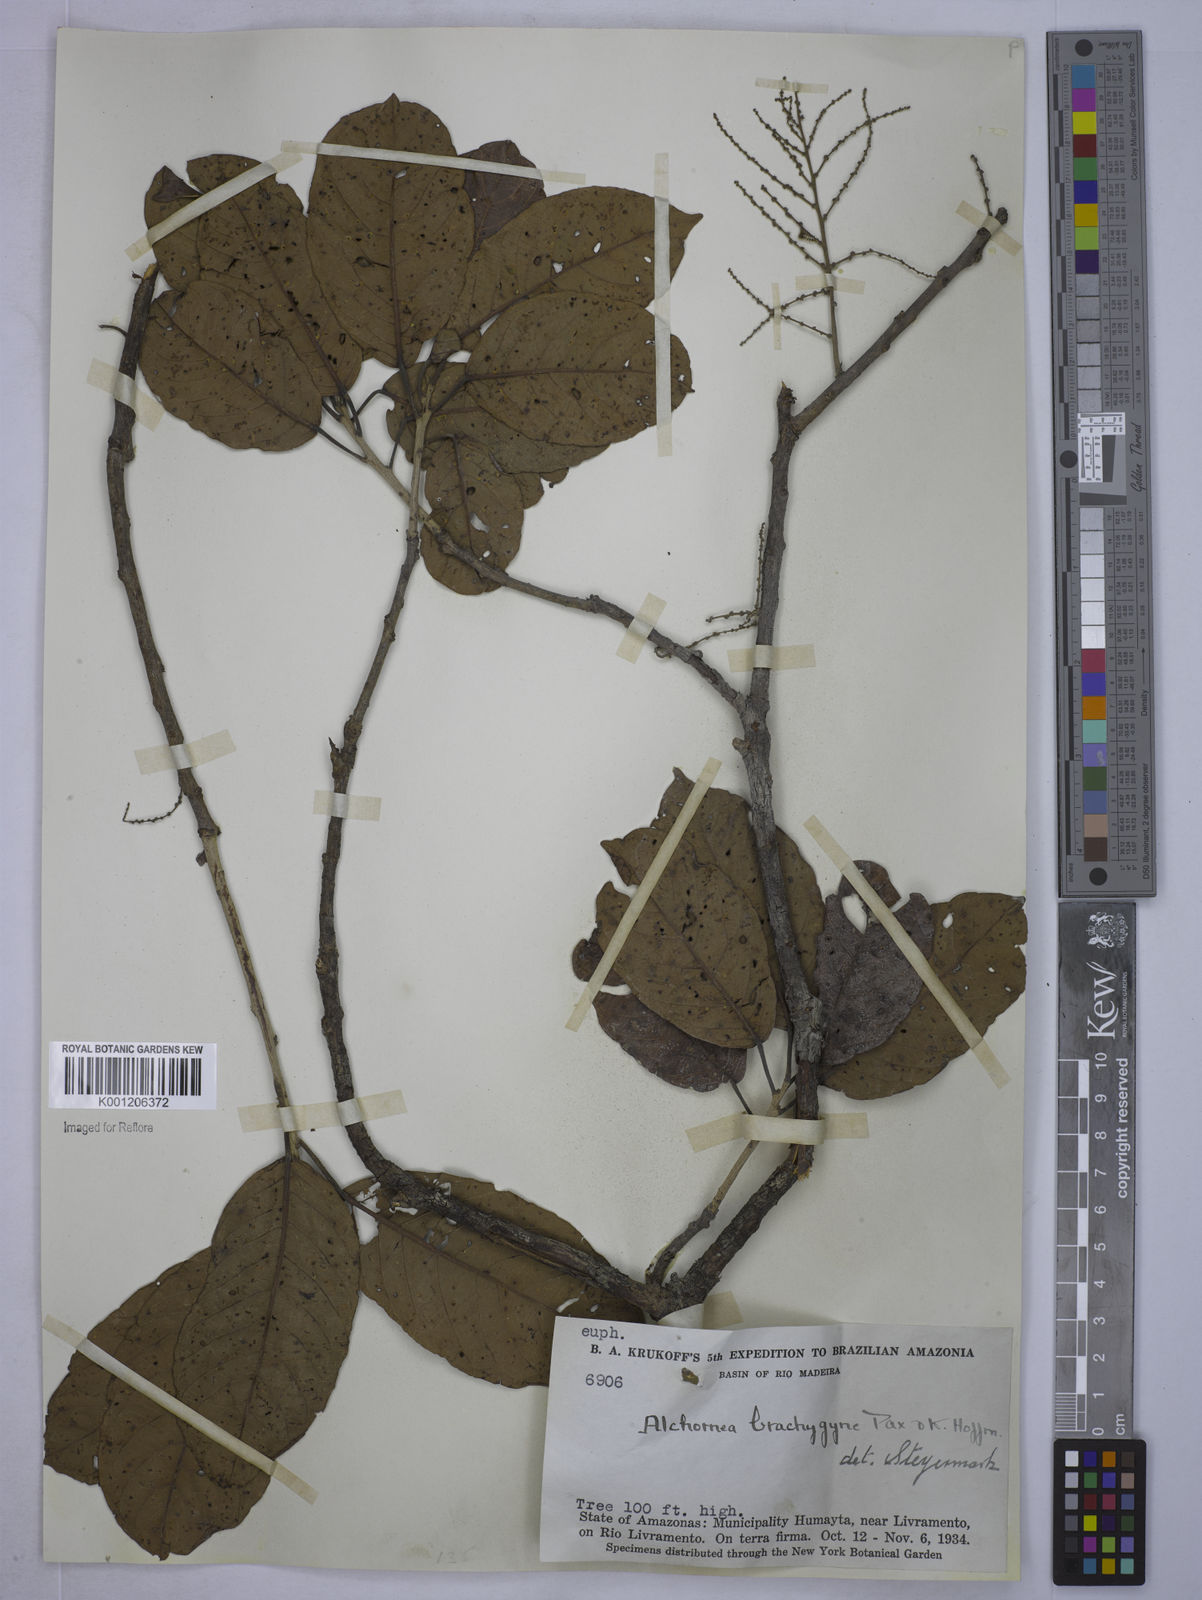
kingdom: Plantae
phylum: Tracheophyta
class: Magnoliopsida
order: Malpighiales
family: Euphorbiaceae
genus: Alchornea
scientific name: Alchornea discolor
